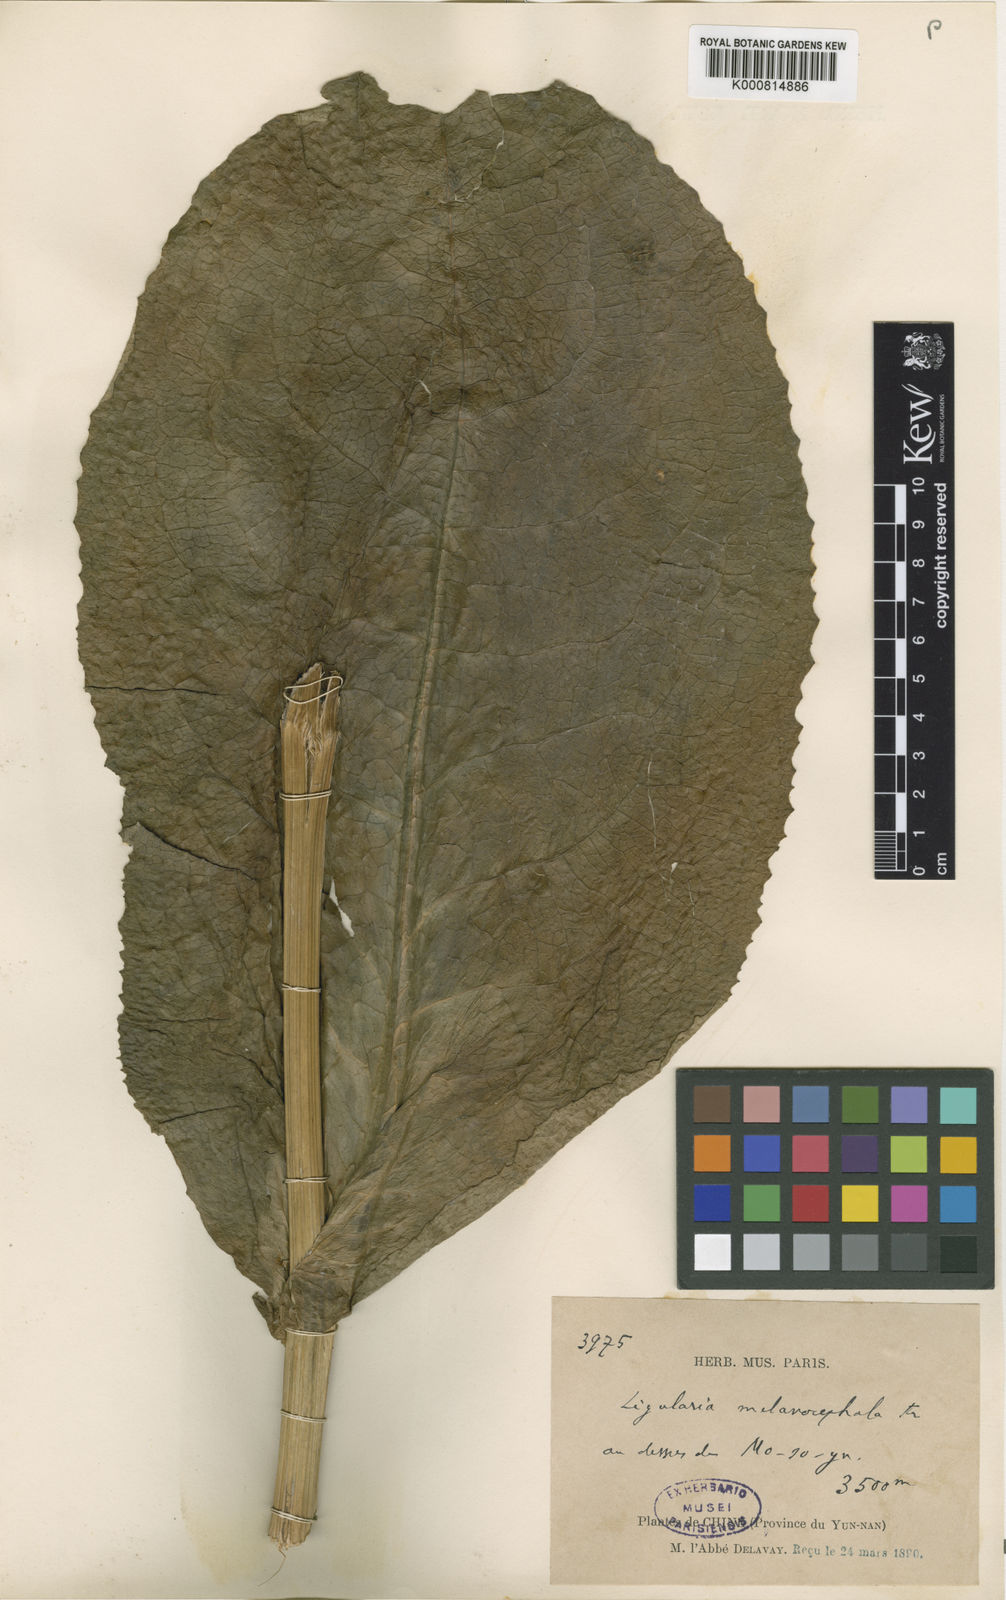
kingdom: Plantae
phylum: Tracheophyta
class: Magnoliopsida
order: Asterales
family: Asteraceae
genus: Ligularia
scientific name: Ligularia melanocephala
